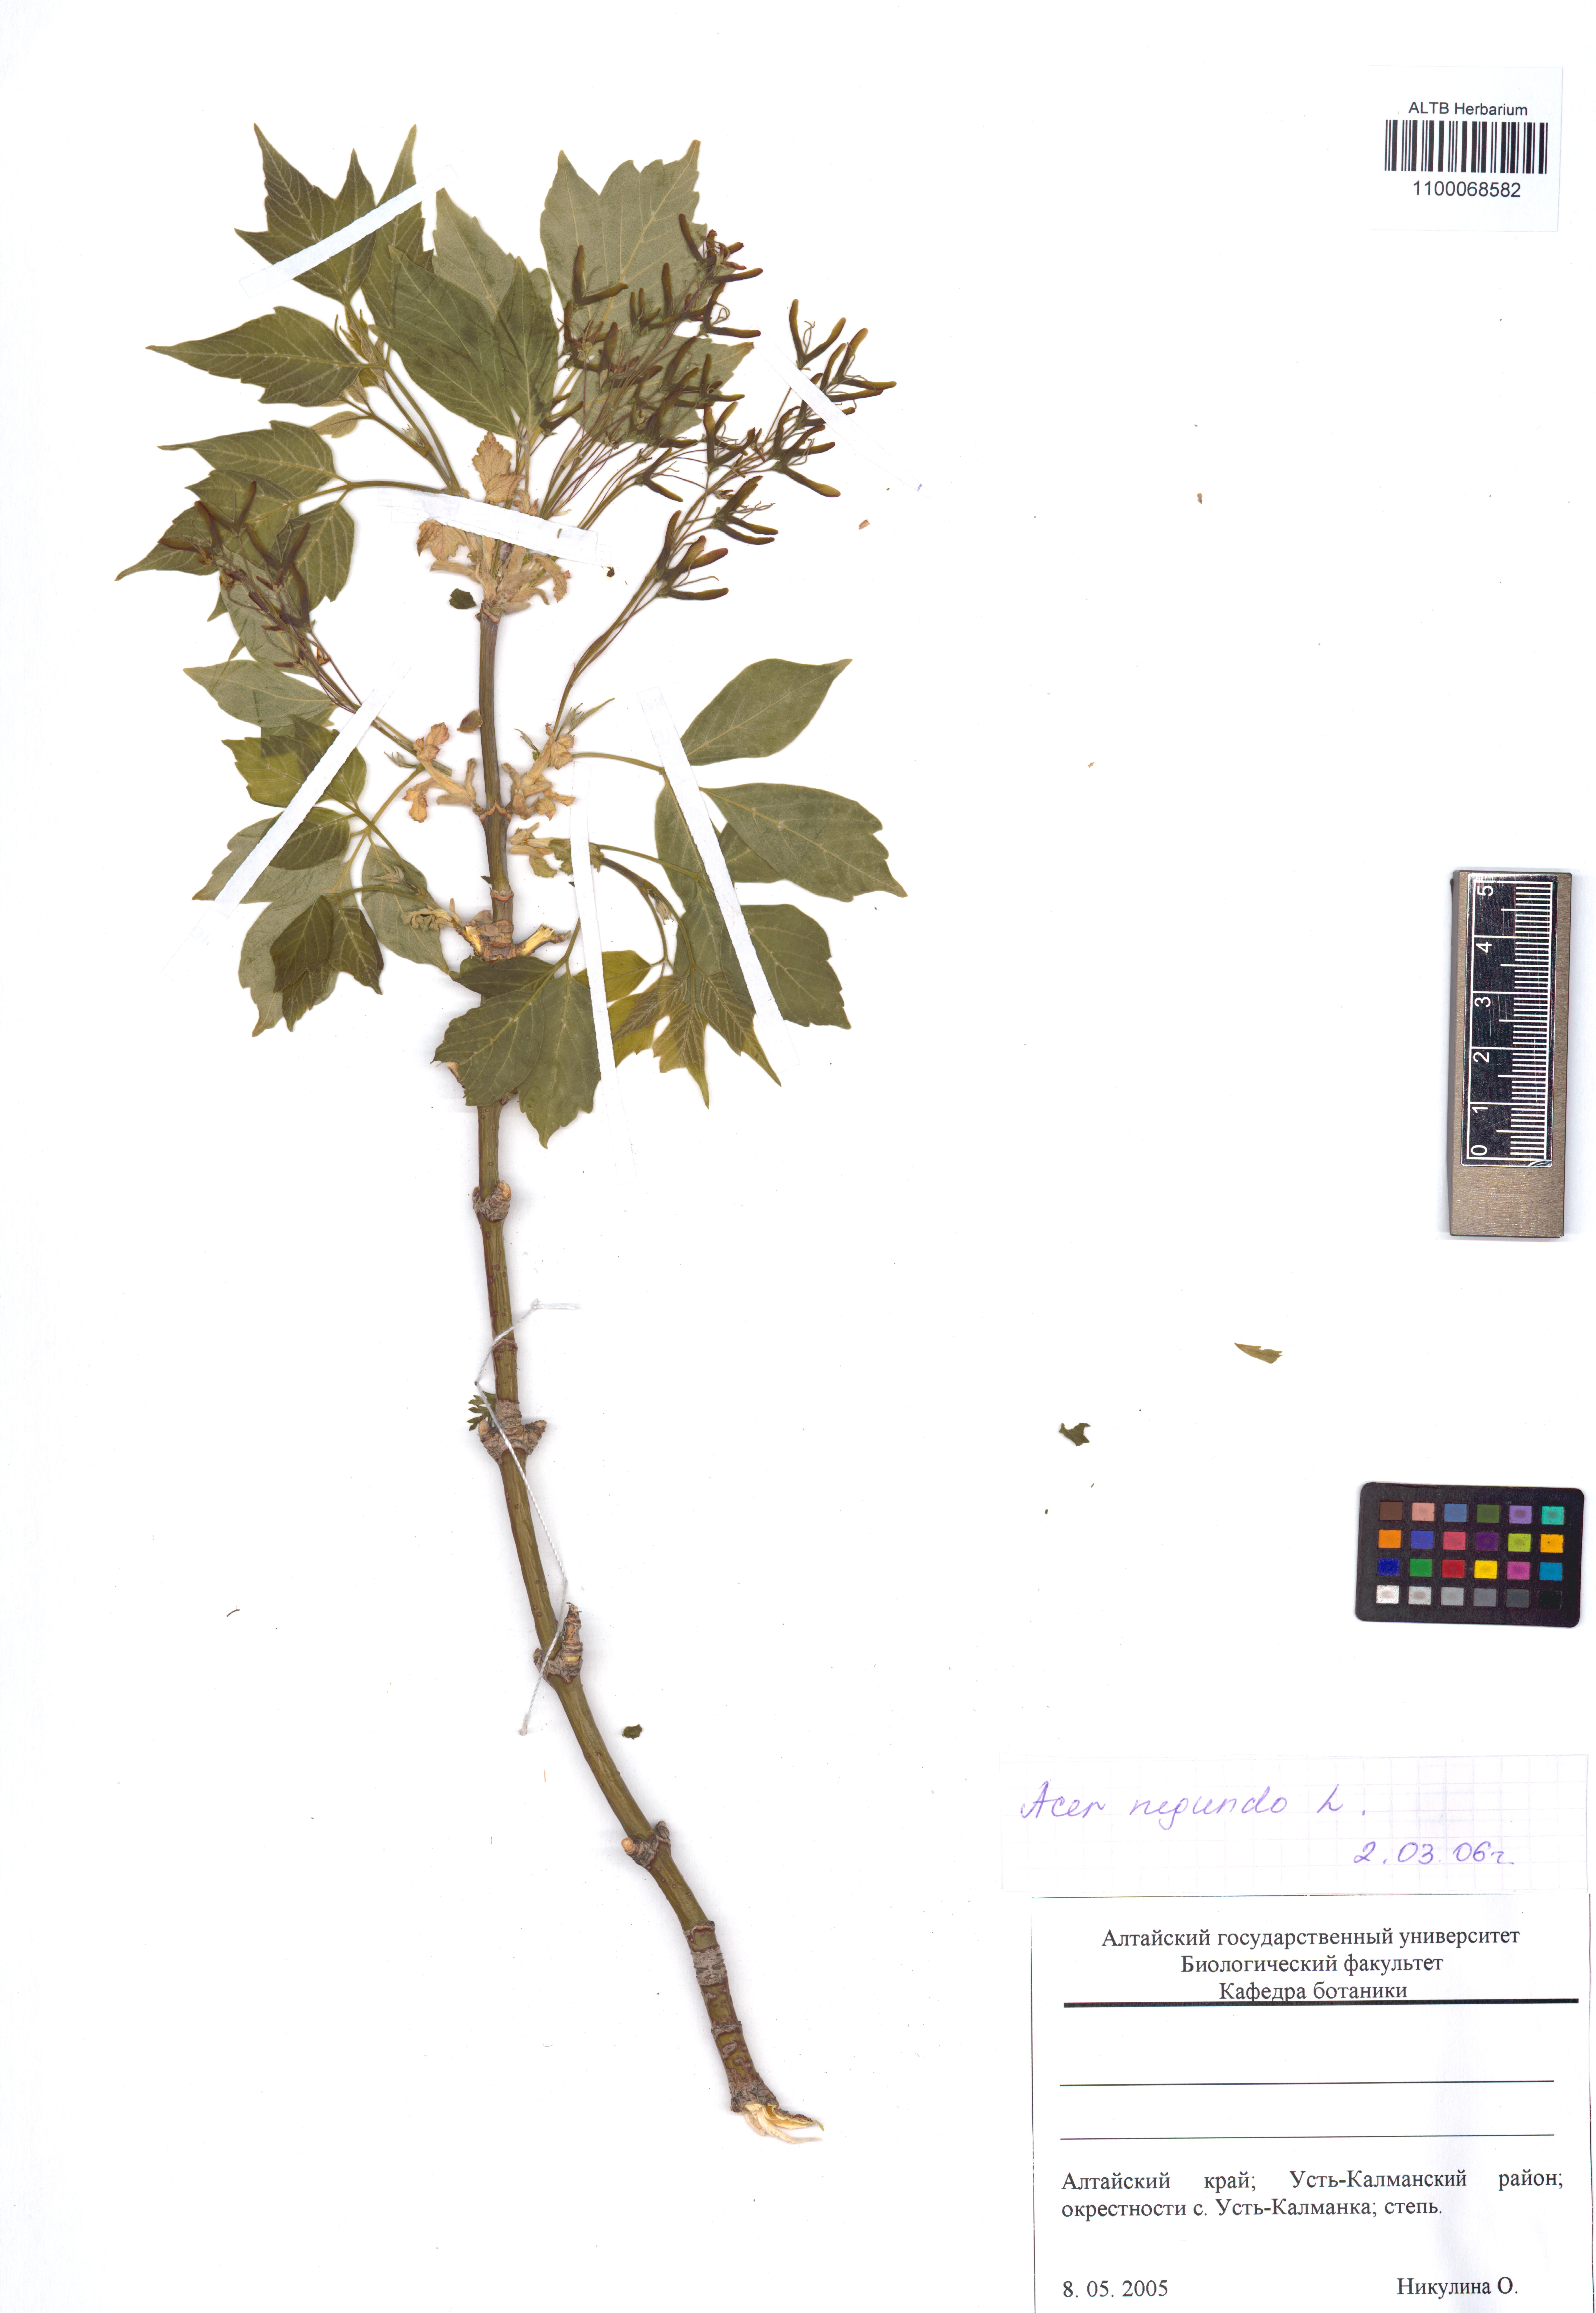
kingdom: Plantae
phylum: Tracheophyta
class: Magnoliopsida
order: Sapindales
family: Sapindaceae
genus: Acer
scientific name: Acer negundo
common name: Ashleaf maple
